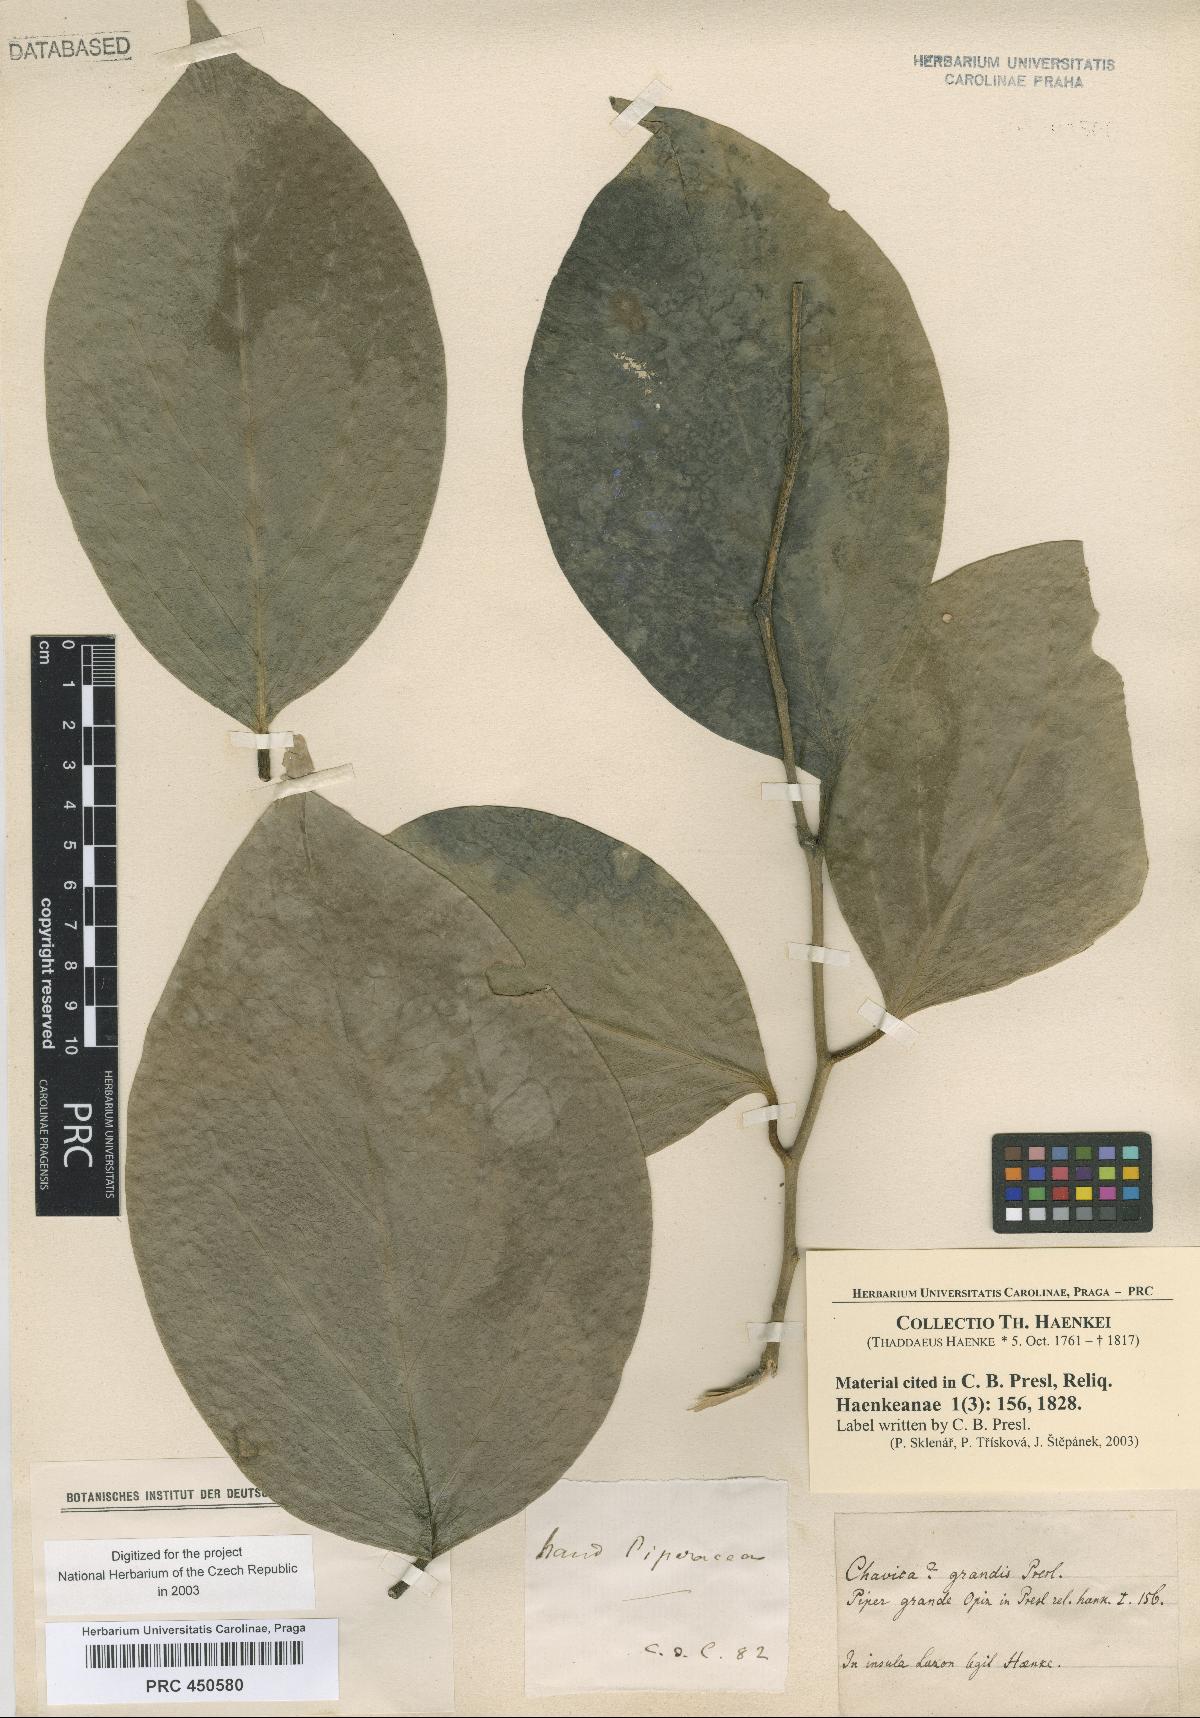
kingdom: Plantae
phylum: Tracheophyta
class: Magnoliopsida
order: Piperales
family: Piperaceae
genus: Piper
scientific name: Piper
